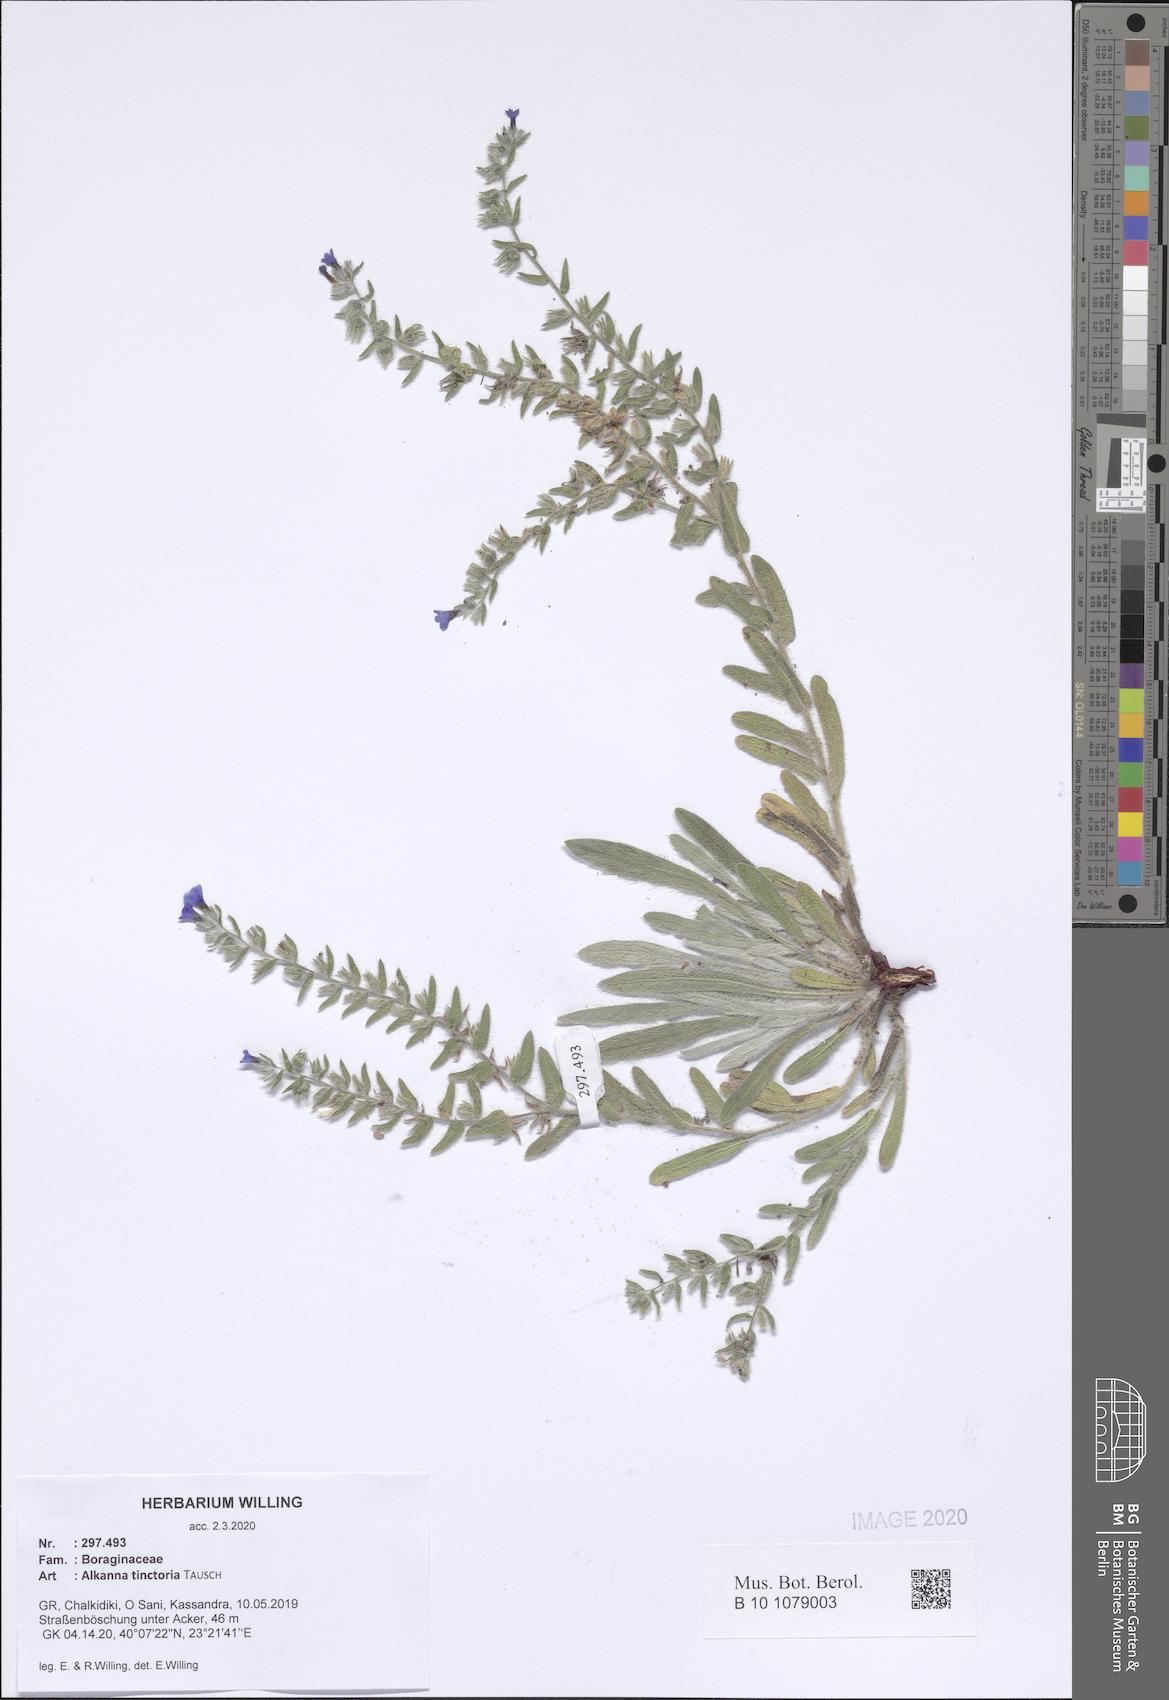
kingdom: Plantae
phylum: Tracheophyta
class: Magnoliopsida
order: Boraginales
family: Boraginaceae
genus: Alkanna
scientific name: Alkanna tinctoria
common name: Dyer's-alkanet
